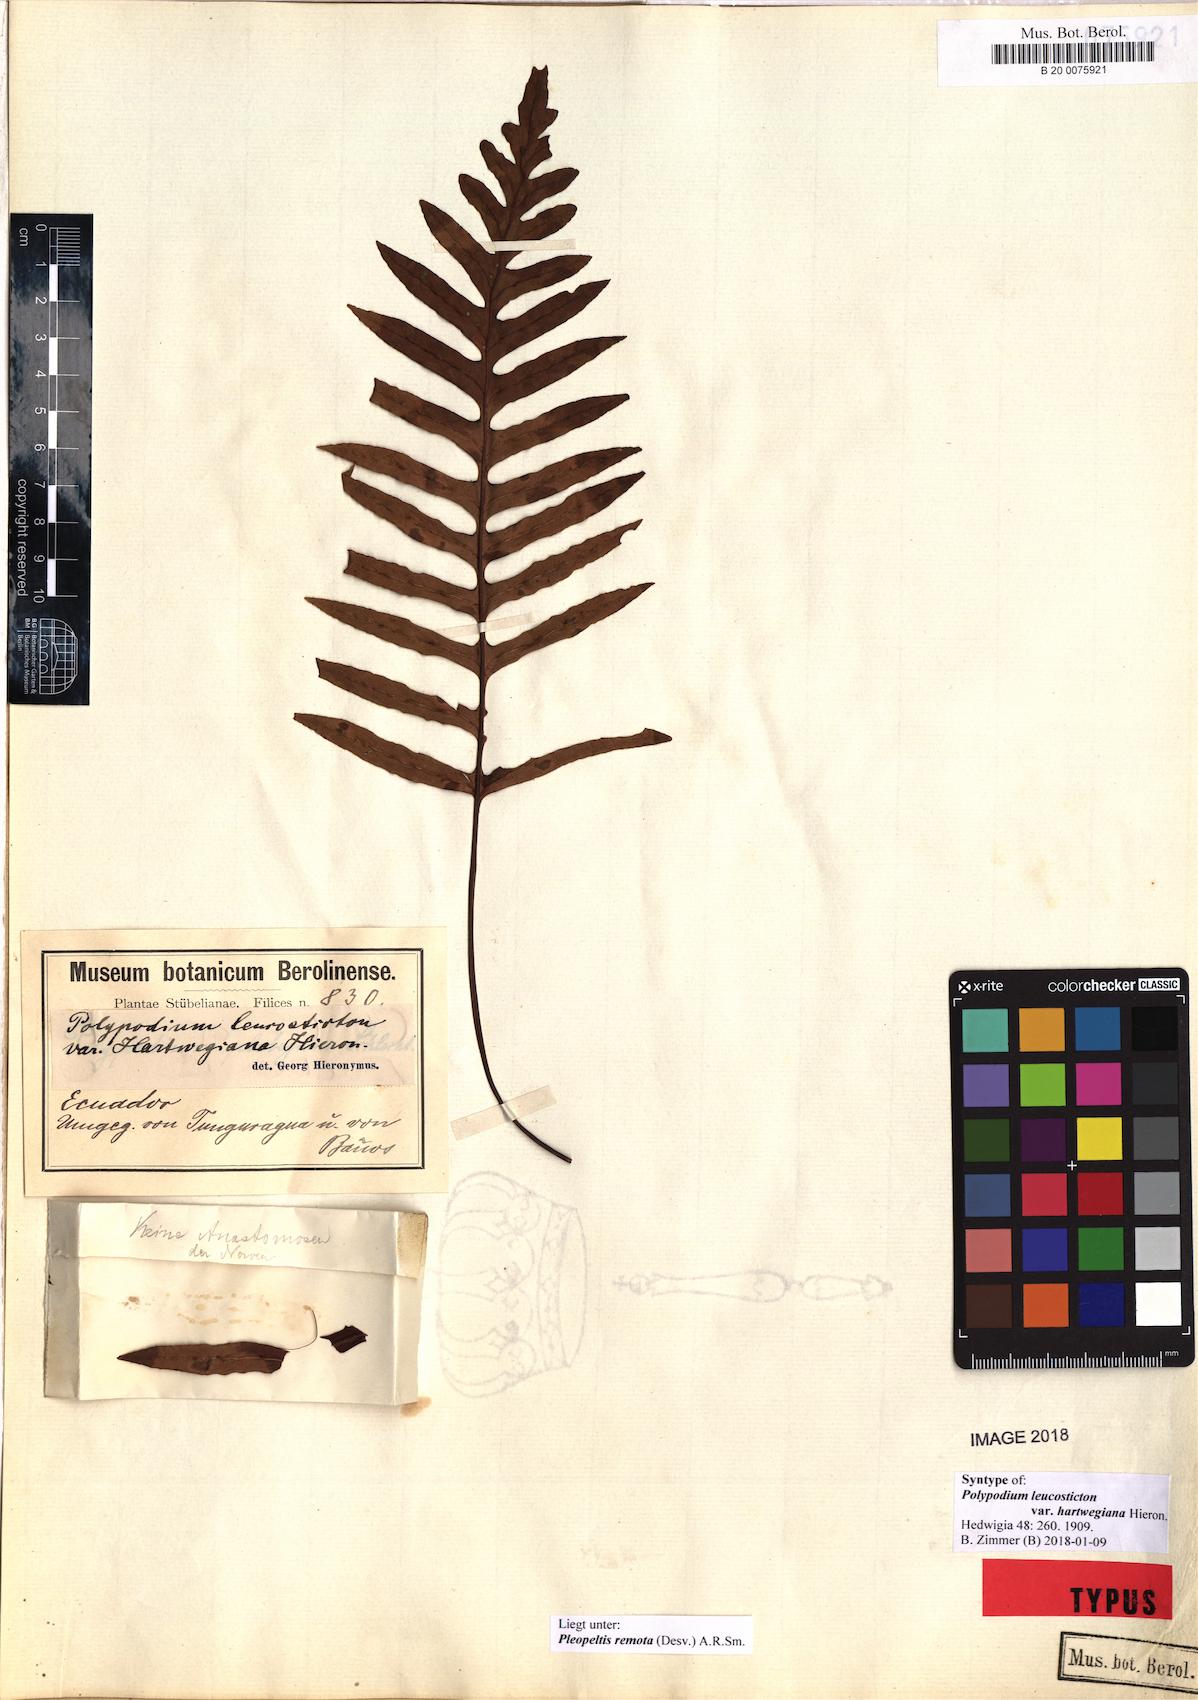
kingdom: Plantae
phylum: Tracheophyta
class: Polypodiopsida
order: Polypodiales
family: Polypodiaceae
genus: Pleopeltis
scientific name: Pleopeltis remota
